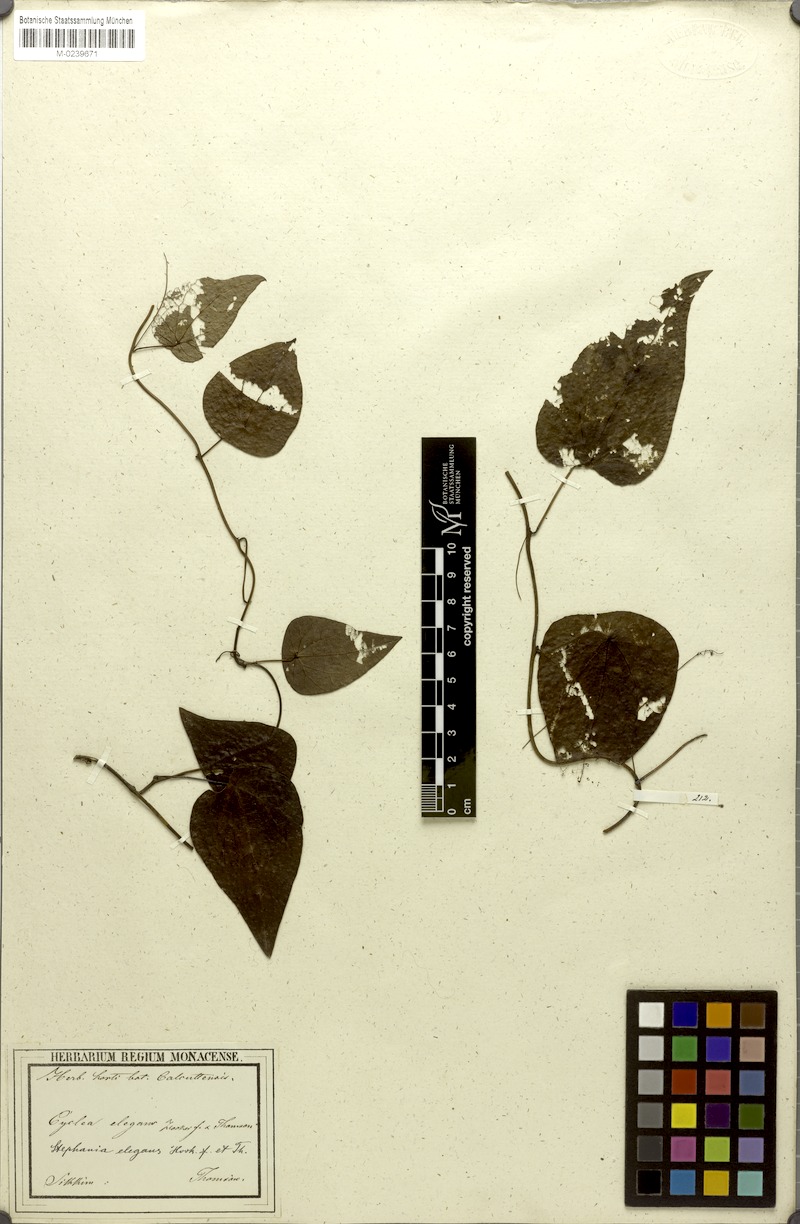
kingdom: Plantae
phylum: Tracheophyta
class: Magnoliopsida
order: Ranunculales
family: Menispermaceae
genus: Stephania
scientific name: Stephania elegans
